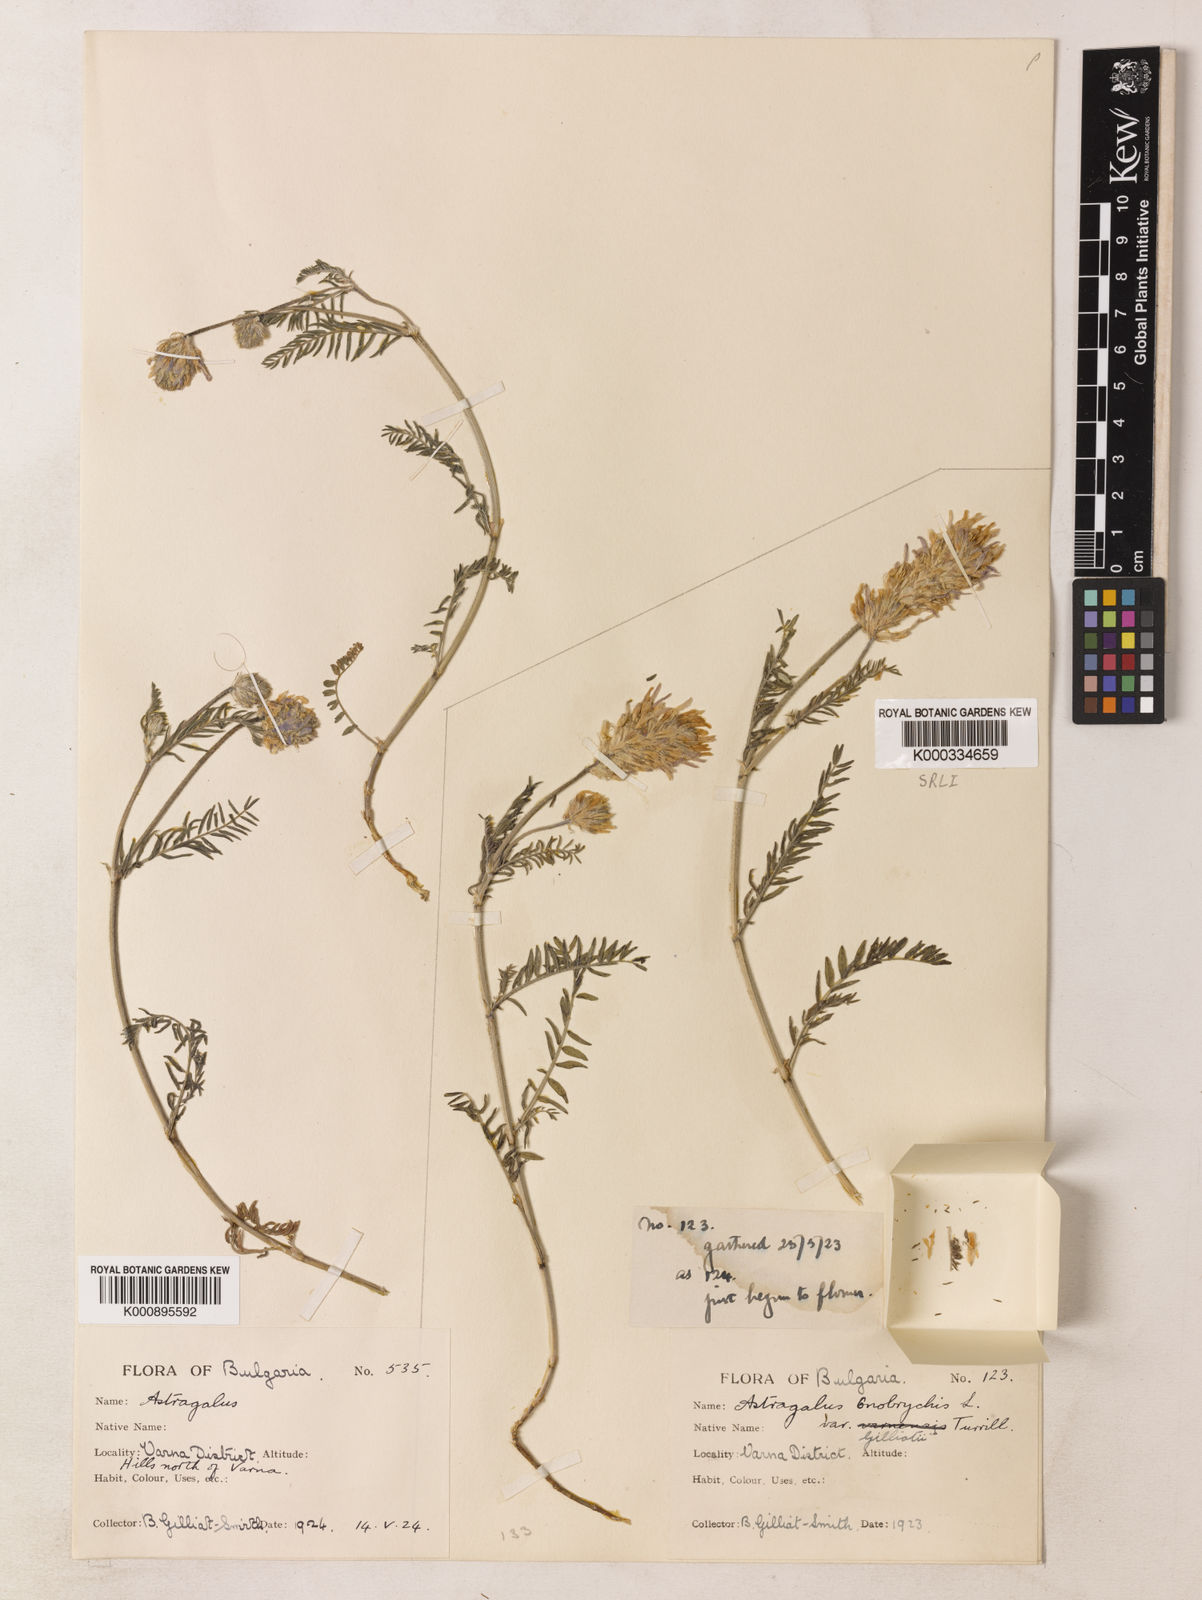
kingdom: Plantae
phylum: Tracheophyta
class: Magnoliopsida
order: Fabales
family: Fabaceae
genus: Astragalus
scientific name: Astragalus
